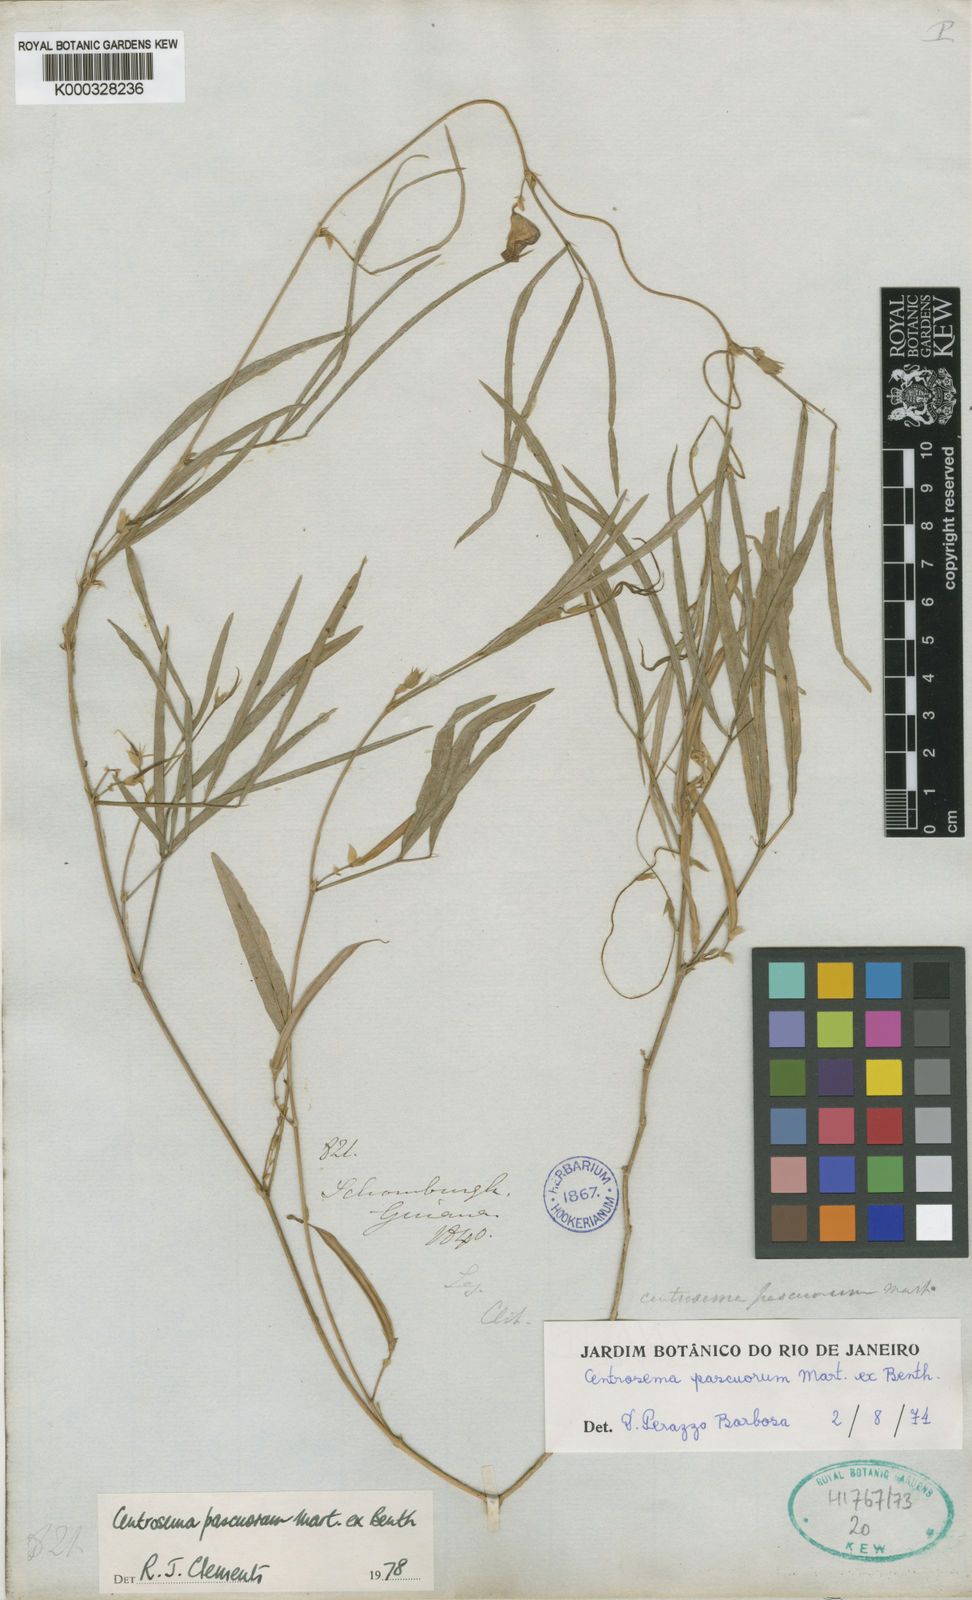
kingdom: Plantae
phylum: Tracheophyta
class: Magnoliopsida
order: Fabales
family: Fabaceae
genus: Centrosema
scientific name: Centrosema pascuorum
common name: Centurion
